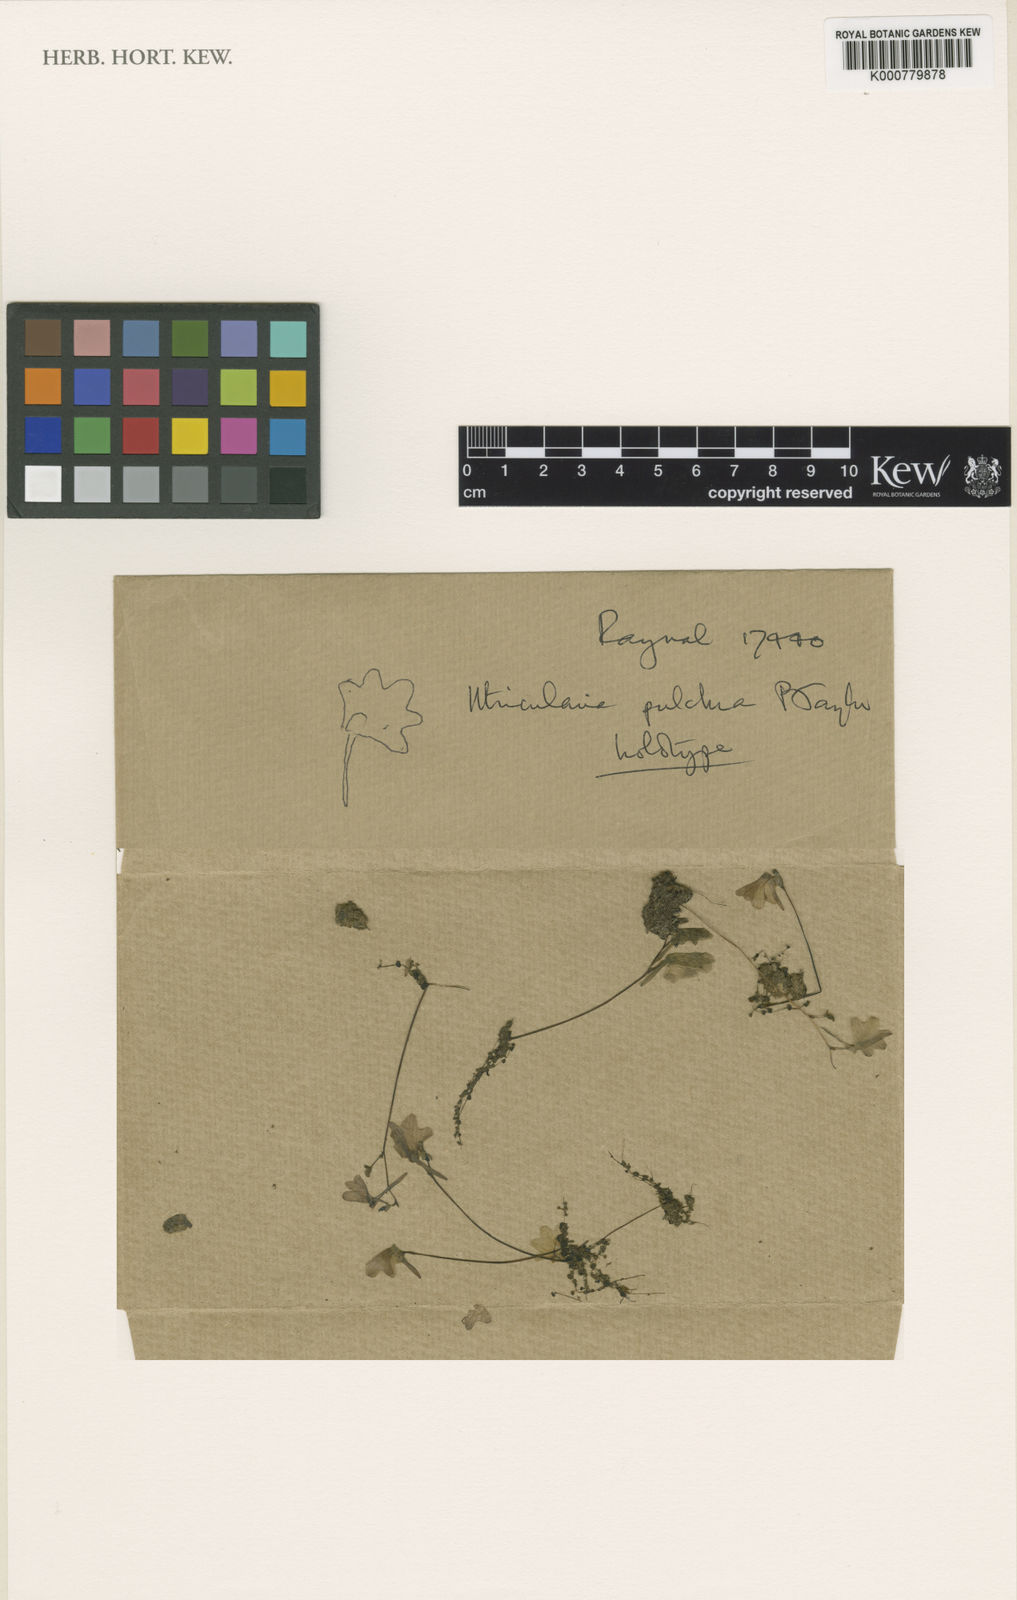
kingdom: Plantae
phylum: Tracheophyta
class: Magnoliopsida
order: Lamiales
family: Lentibulariaceae
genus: Utricularia
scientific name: Utricularia pulchra
